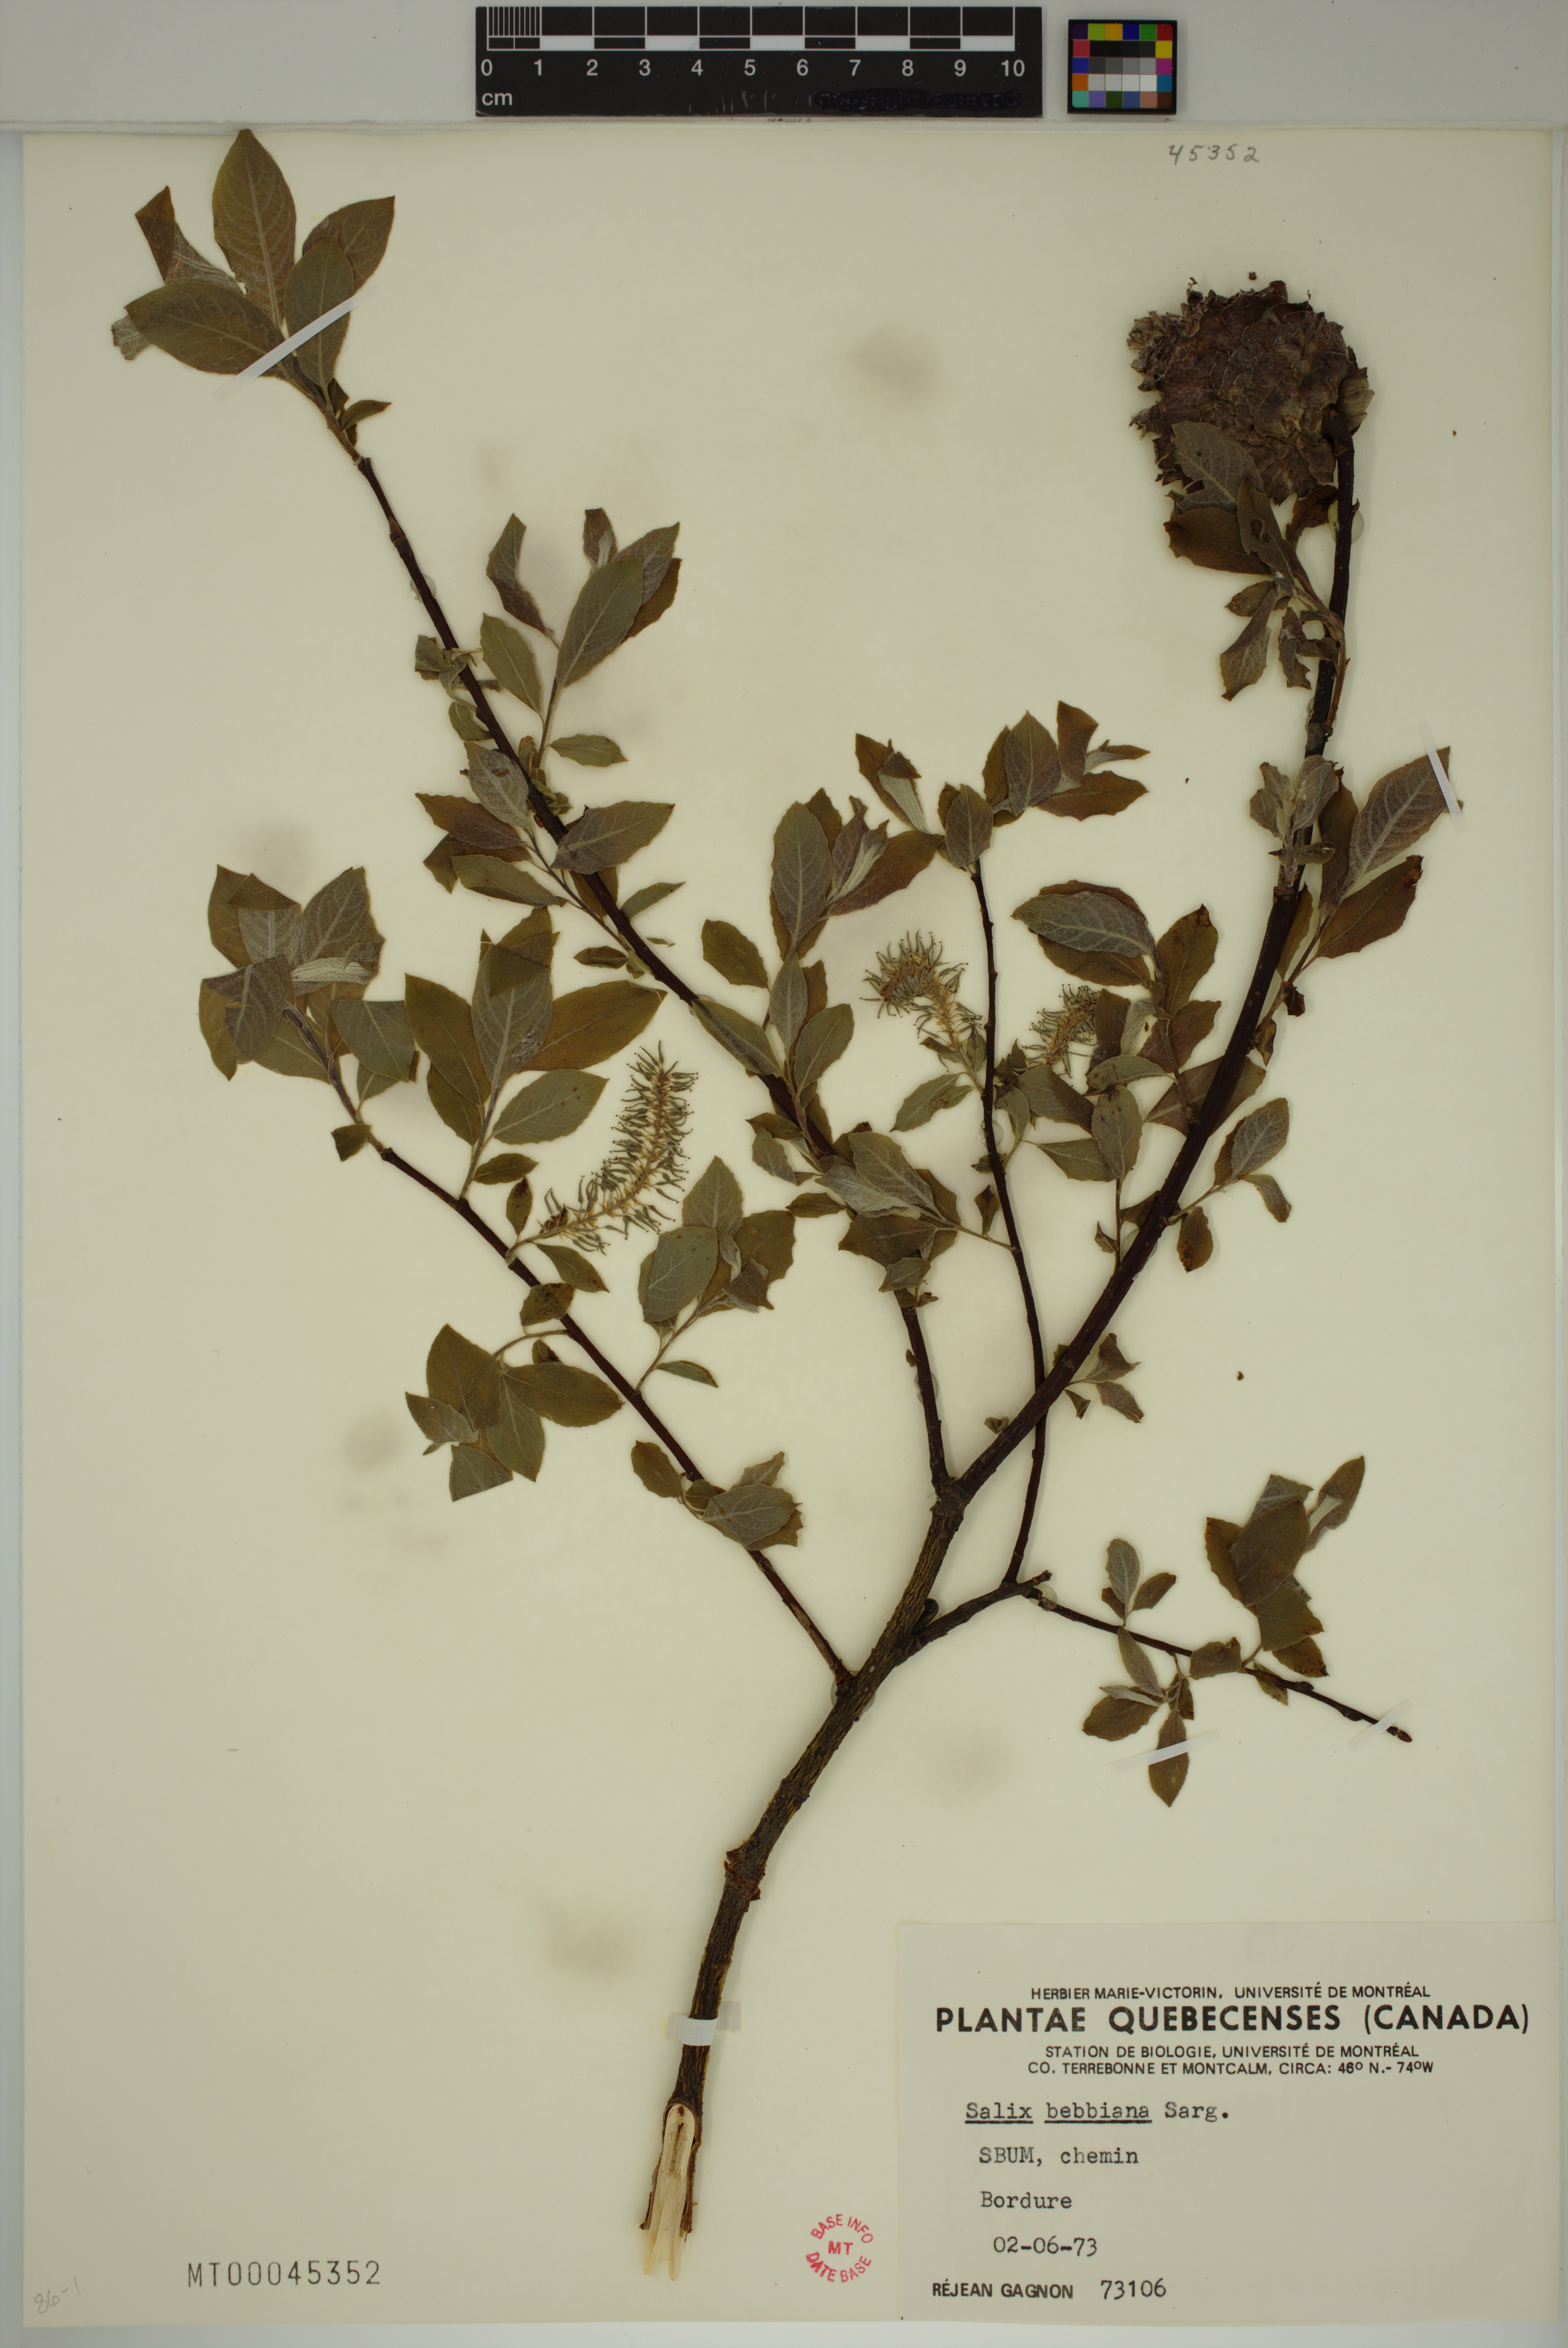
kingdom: Plantae
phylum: Tracheophyta
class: Magnoliopsida
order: Malpighiales
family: Salicaceae
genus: Salix
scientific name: Salix bebbiana
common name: Bebb's willow
